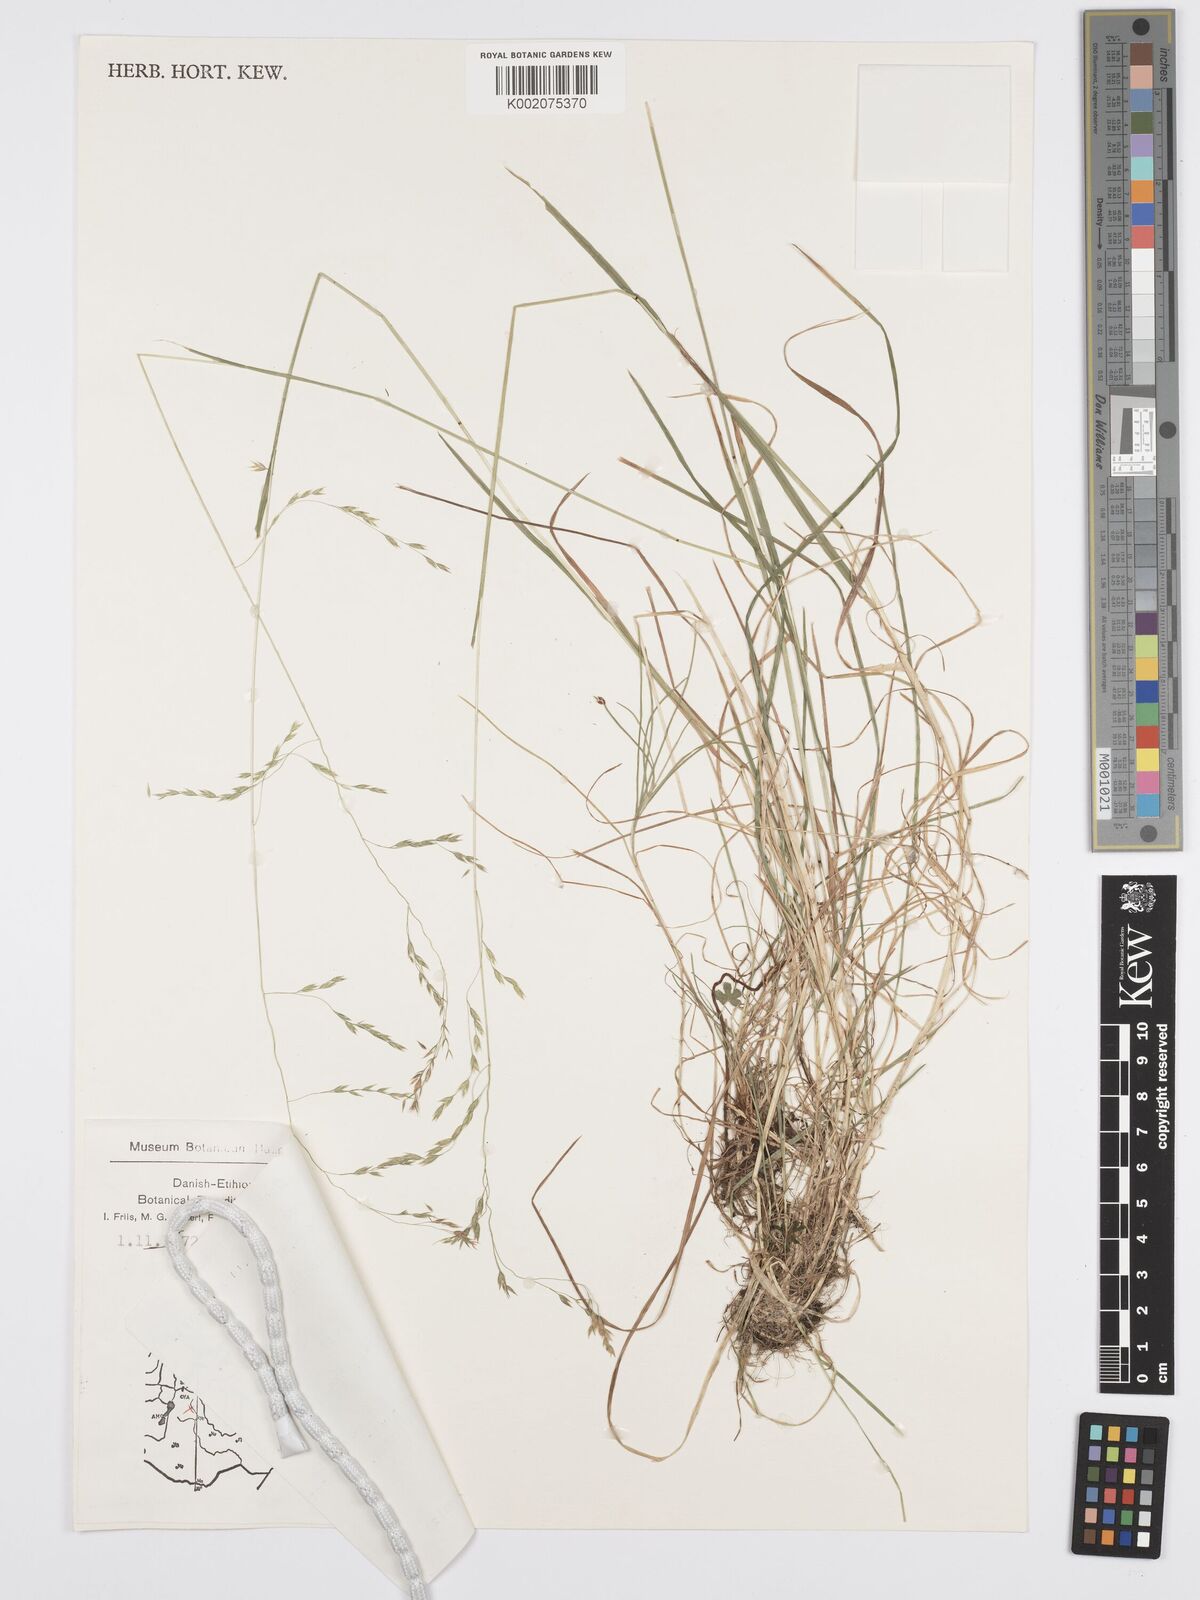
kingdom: Plantae
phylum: Tracheophyta
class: Liliopsida
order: Poales
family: Poaceae
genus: Poa
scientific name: Poa schimperiana
